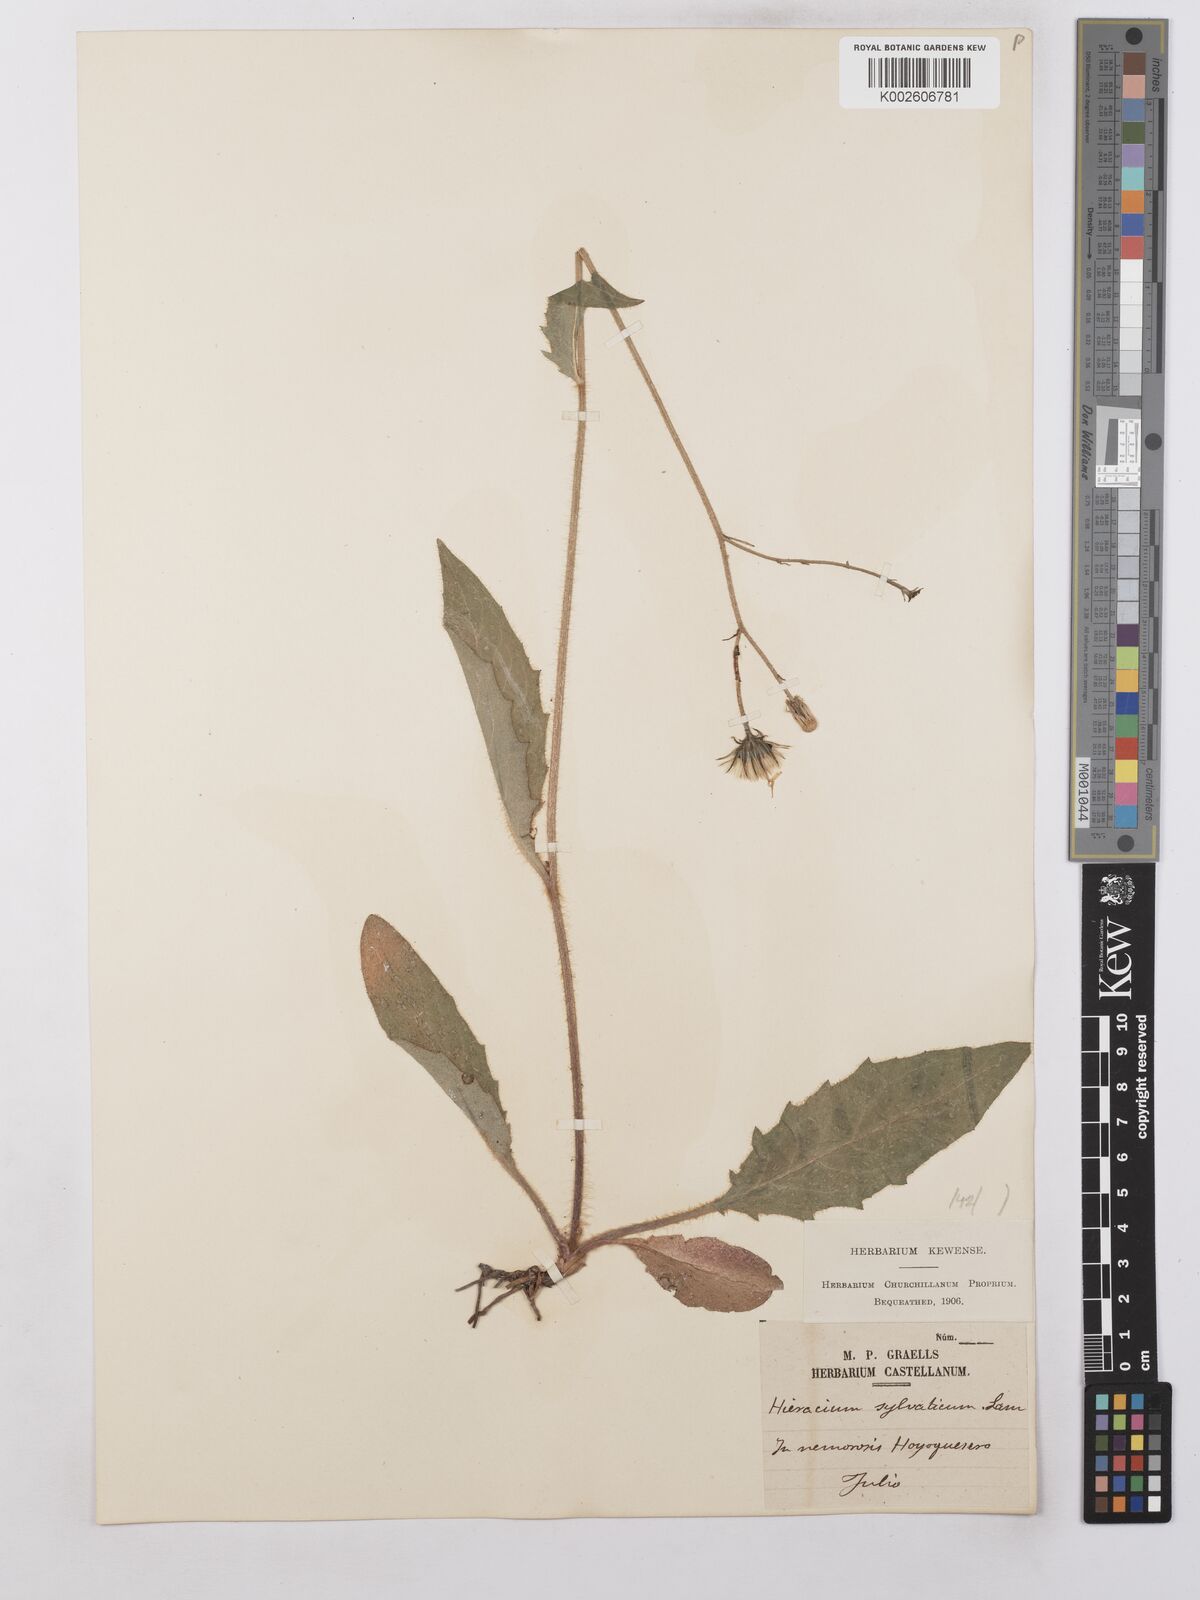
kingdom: Plantae
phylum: Tracheophyta
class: Magnoliopsida
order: Asterales
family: Asteraceae
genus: Hieracium
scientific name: Hieracium lachenalii
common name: Common hawkweed
